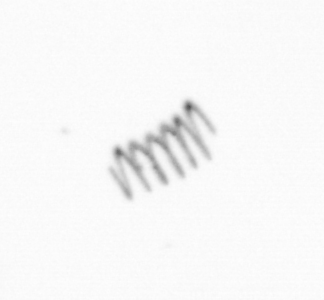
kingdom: Chromista
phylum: Ochrophyta
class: Bacillariophyceae
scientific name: Bacillariophyceae
